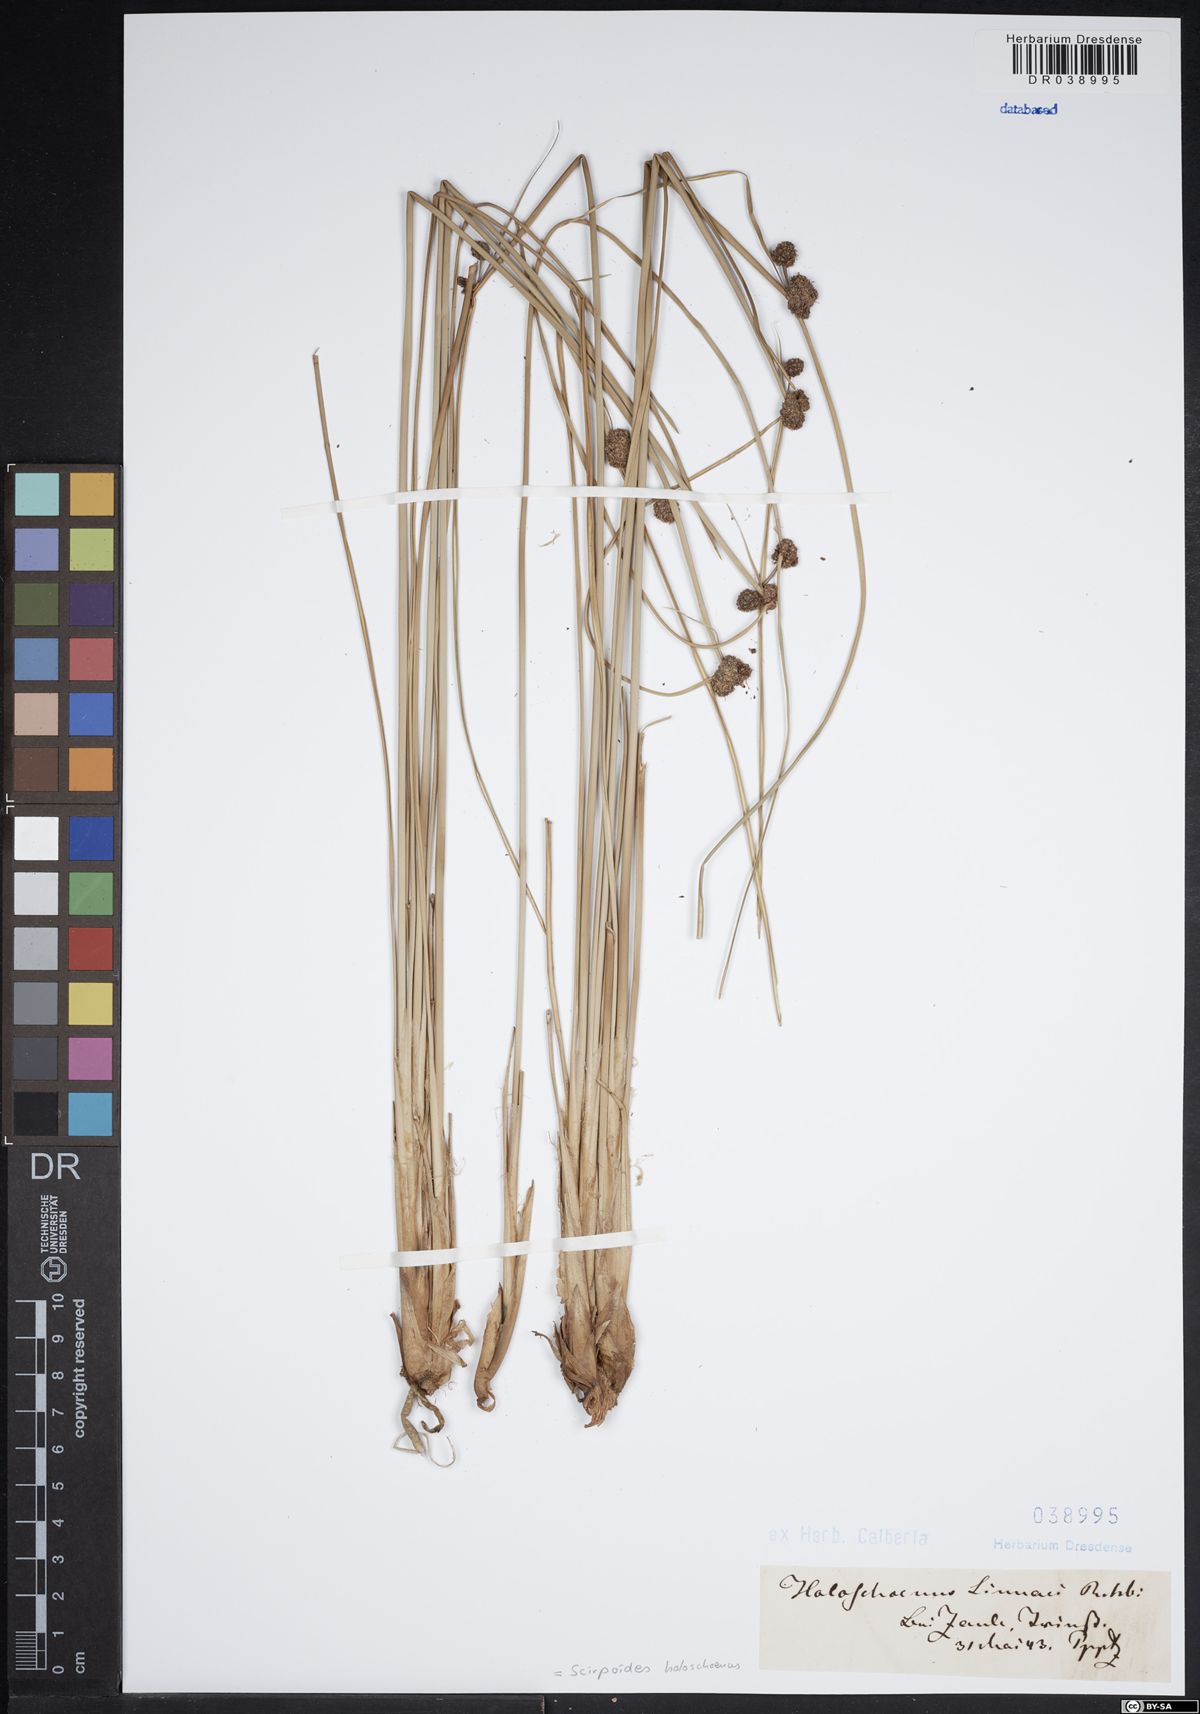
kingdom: Plantae
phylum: Tracheophyta
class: Liliopsida
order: Poales
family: Cyperaceae
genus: Scirpoides
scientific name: Scirpoides holoschoenus
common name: Round-headed club-rush
